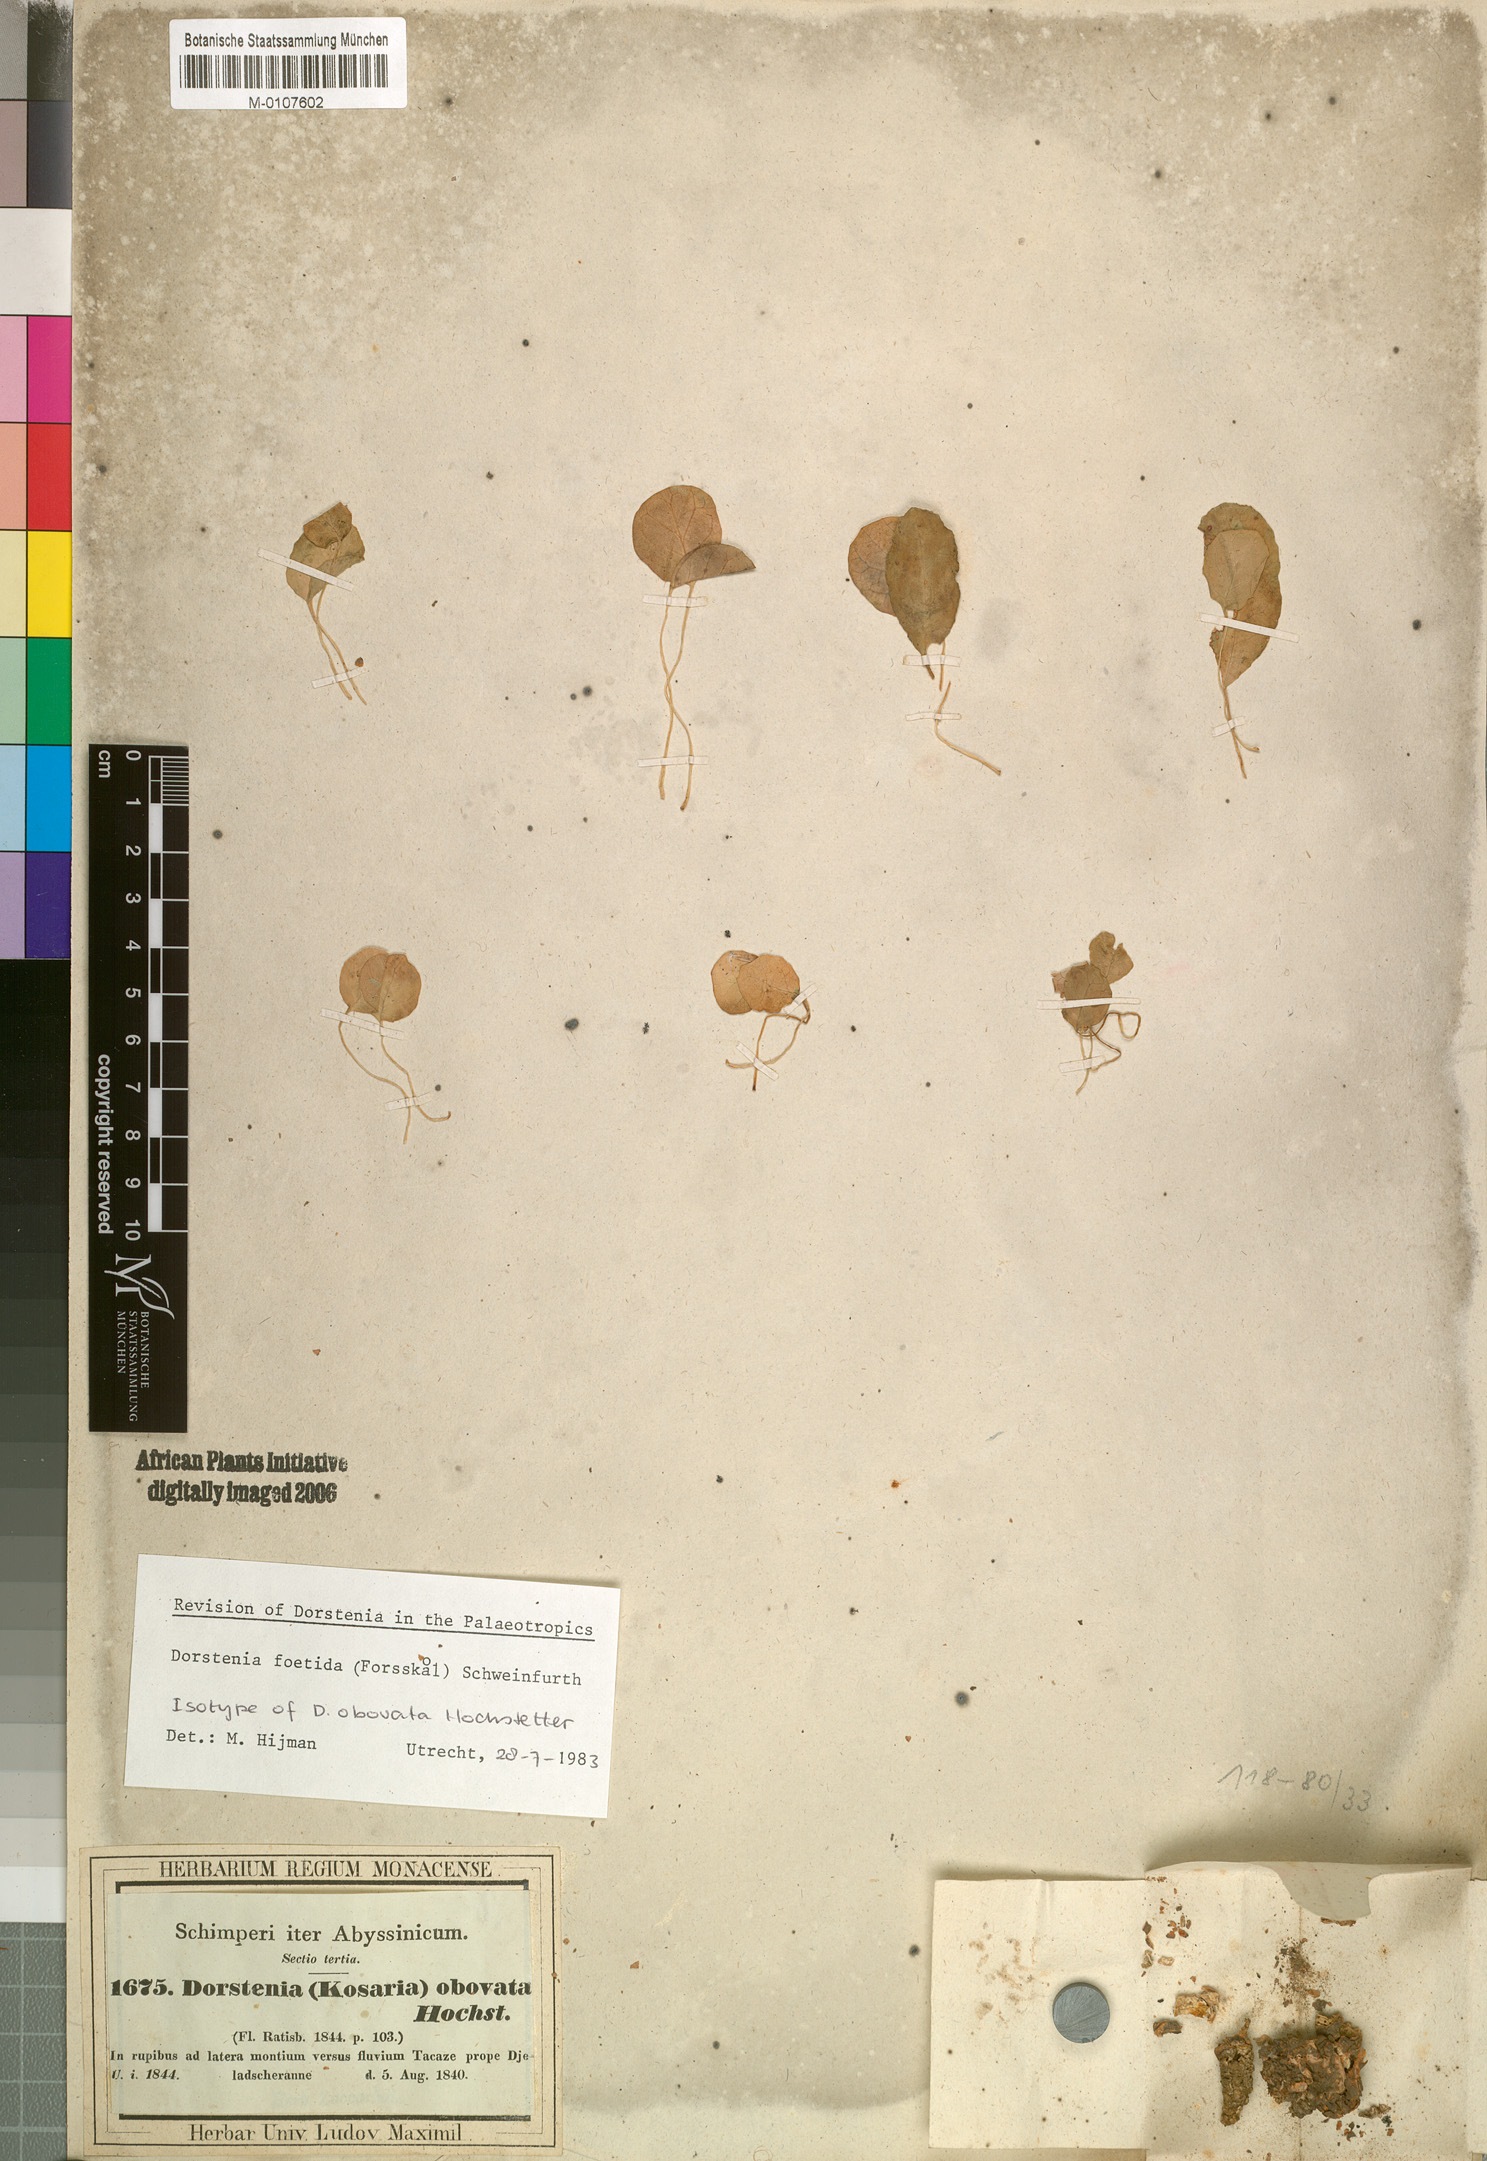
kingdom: Plantae
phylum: Tracheophyta
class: Magnoliopsida
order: Rosales
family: Moraceae
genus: Dorstenia
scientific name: Dorstenia foetida
